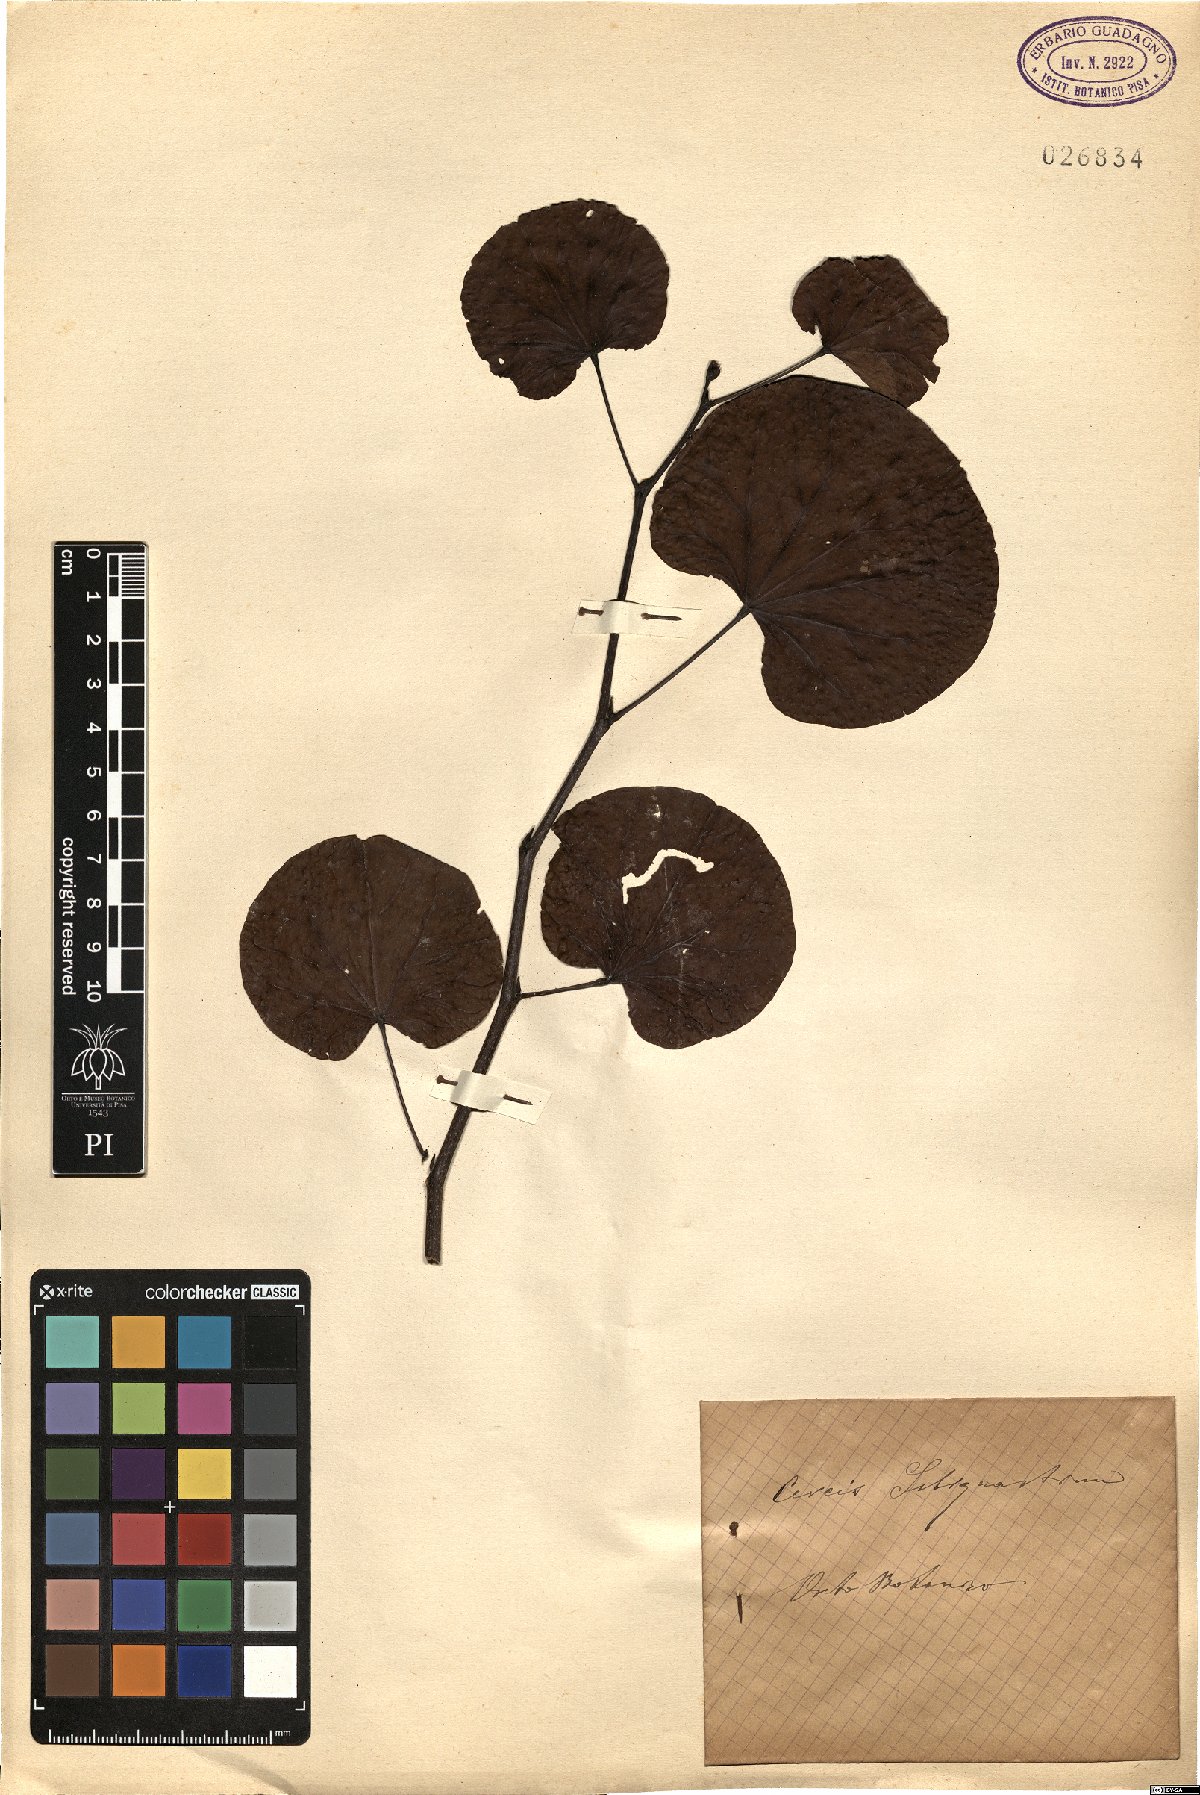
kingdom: Plantae
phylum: Tracheophyta
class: Magnoliopsida
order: Fabales
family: Fabaceae
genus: Cercis
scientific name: Cercis siliquastrum
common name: Judas tree
